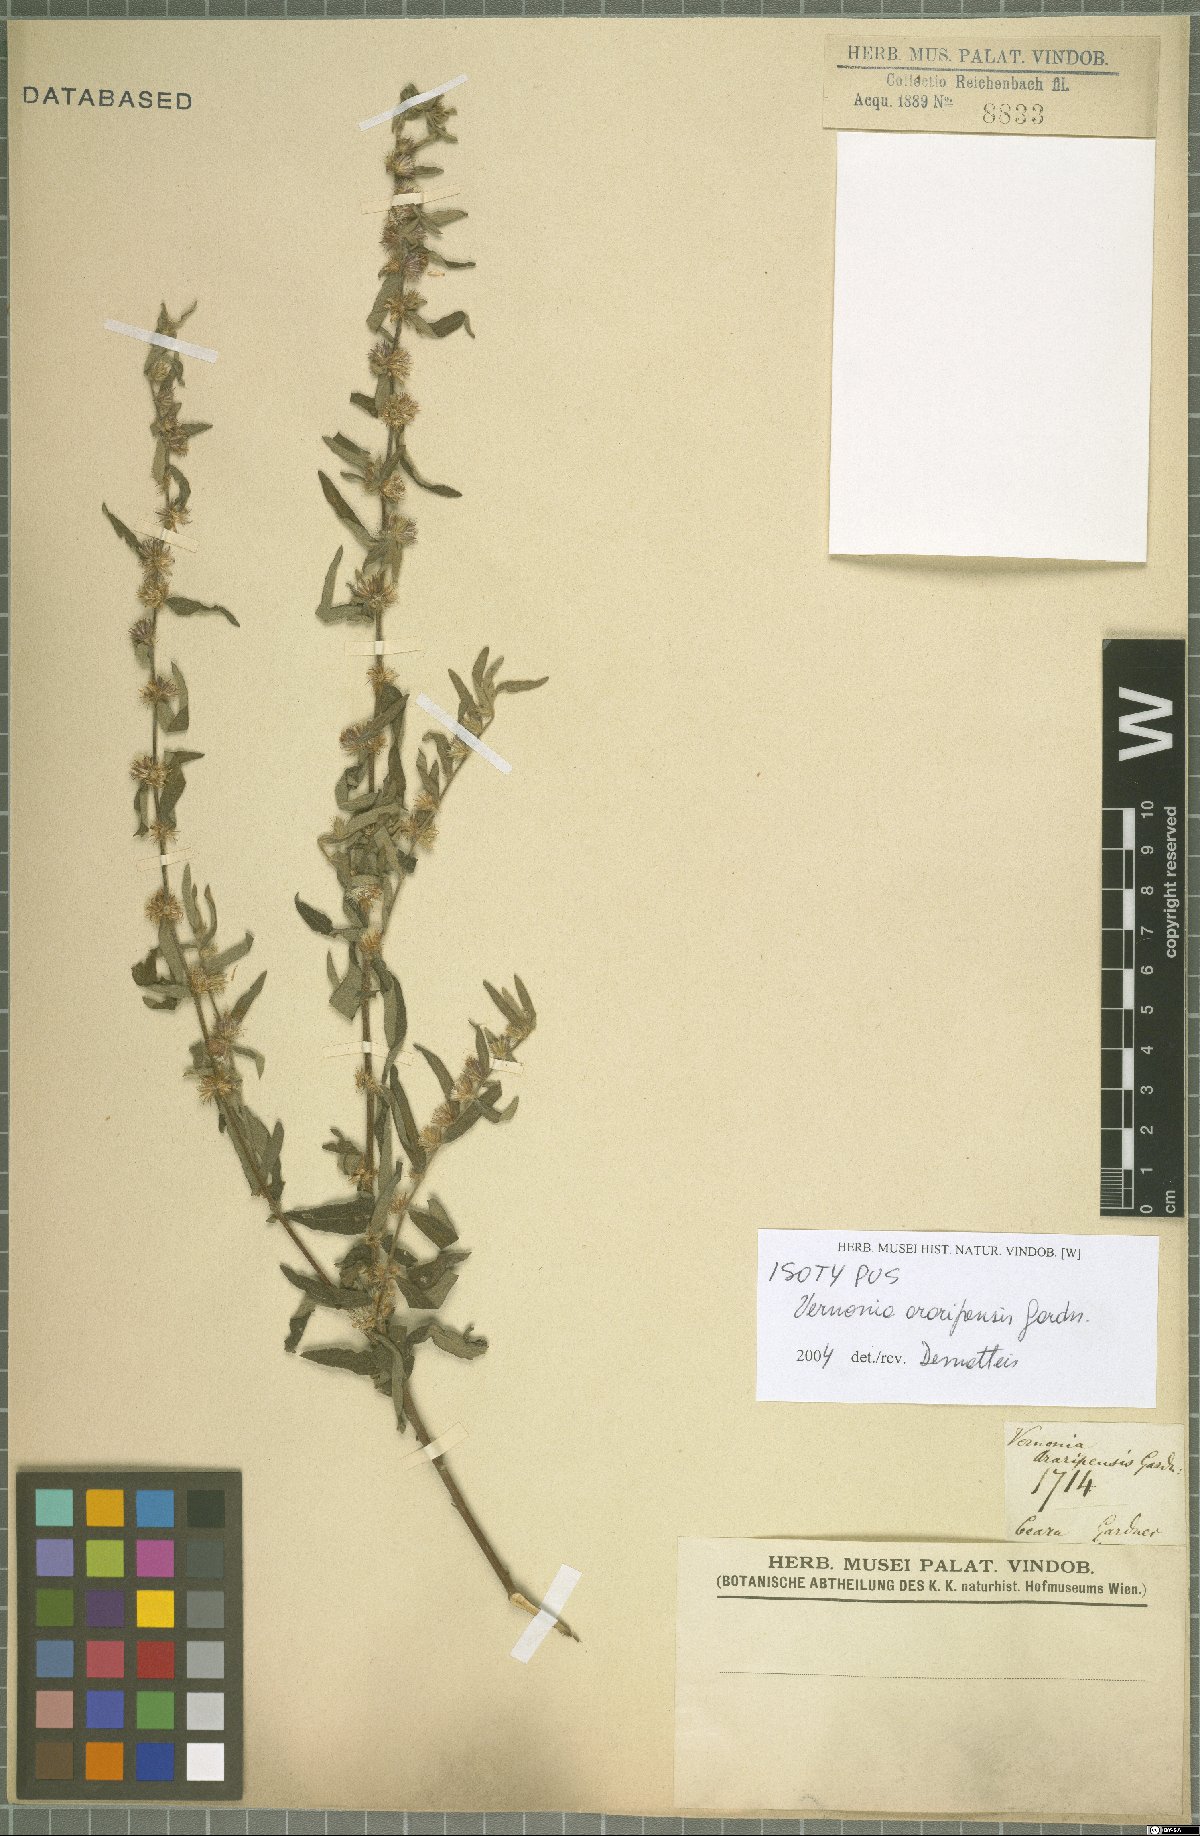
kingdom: Plantae
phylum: Tracheophyta
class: Magnoliopsida
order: Asterales
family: Asteraceae
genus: Lepidaploa
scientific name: Lepidaploa araripensis
